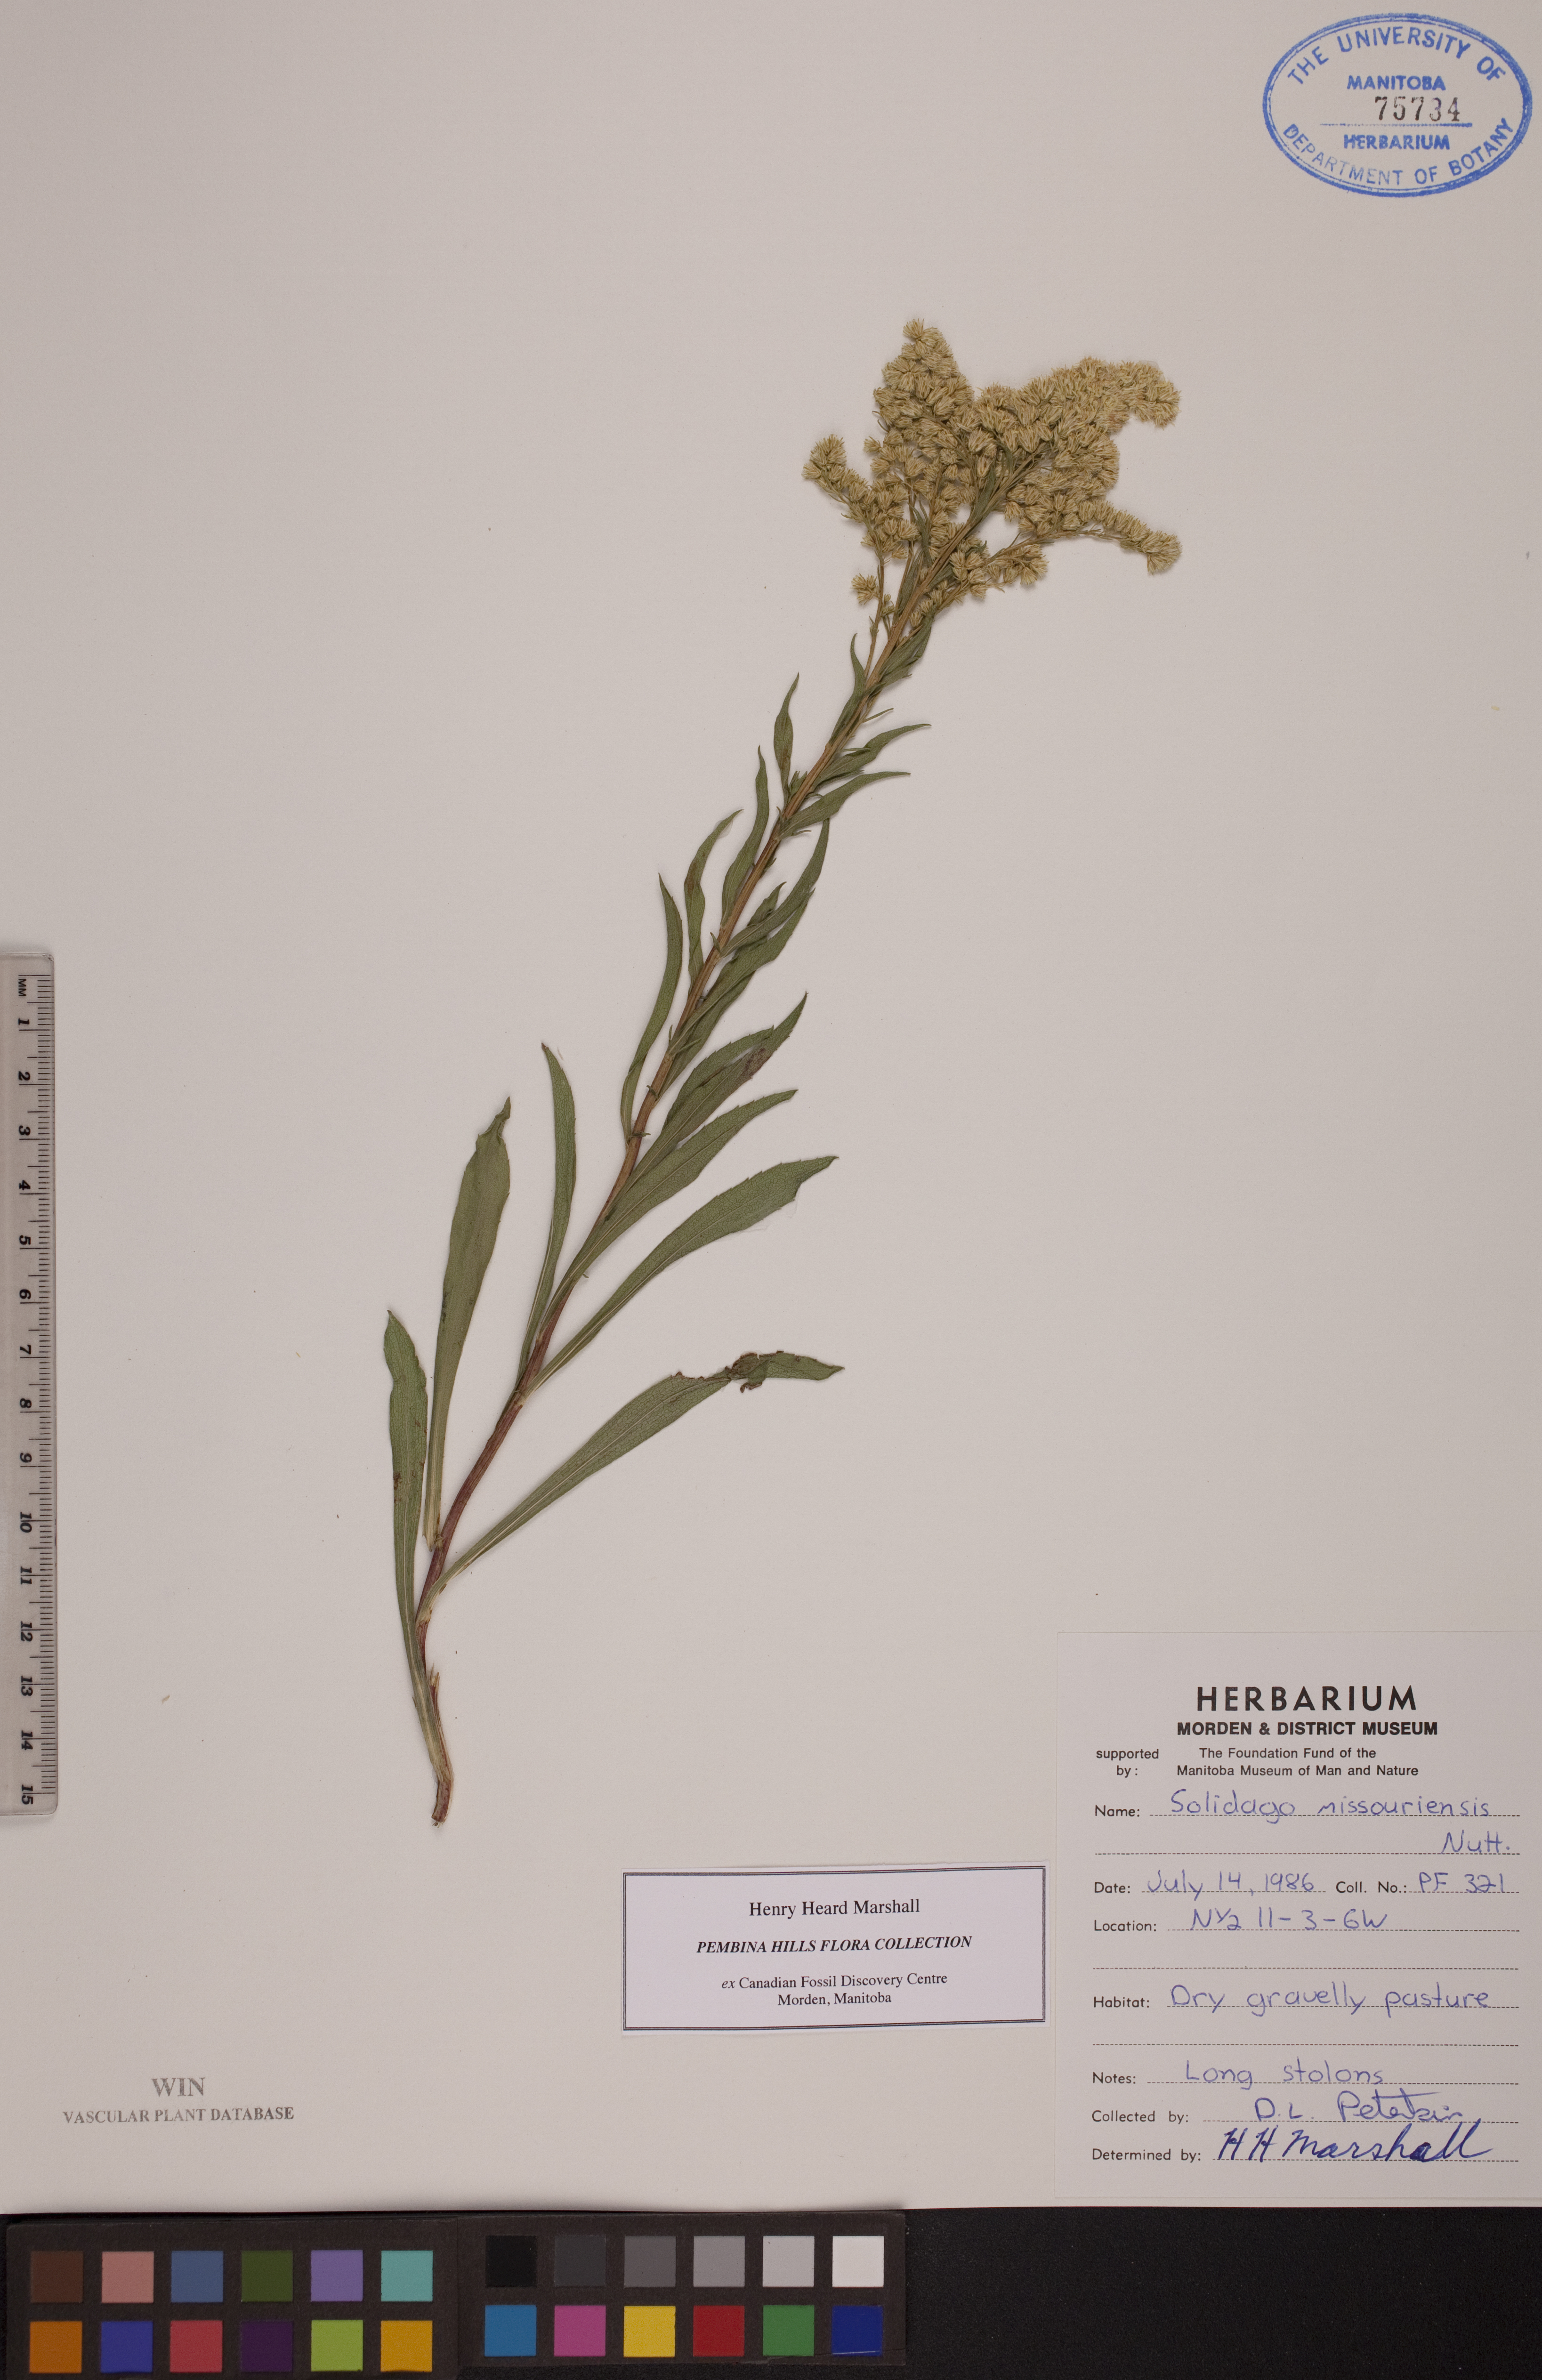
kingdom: Plantae
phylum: Tracheophyta
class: Magnoliopsida
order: Asterales
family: Asteraceae
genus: Solidago
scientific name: Solidago missouriensis
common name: Prairie goldenrod
